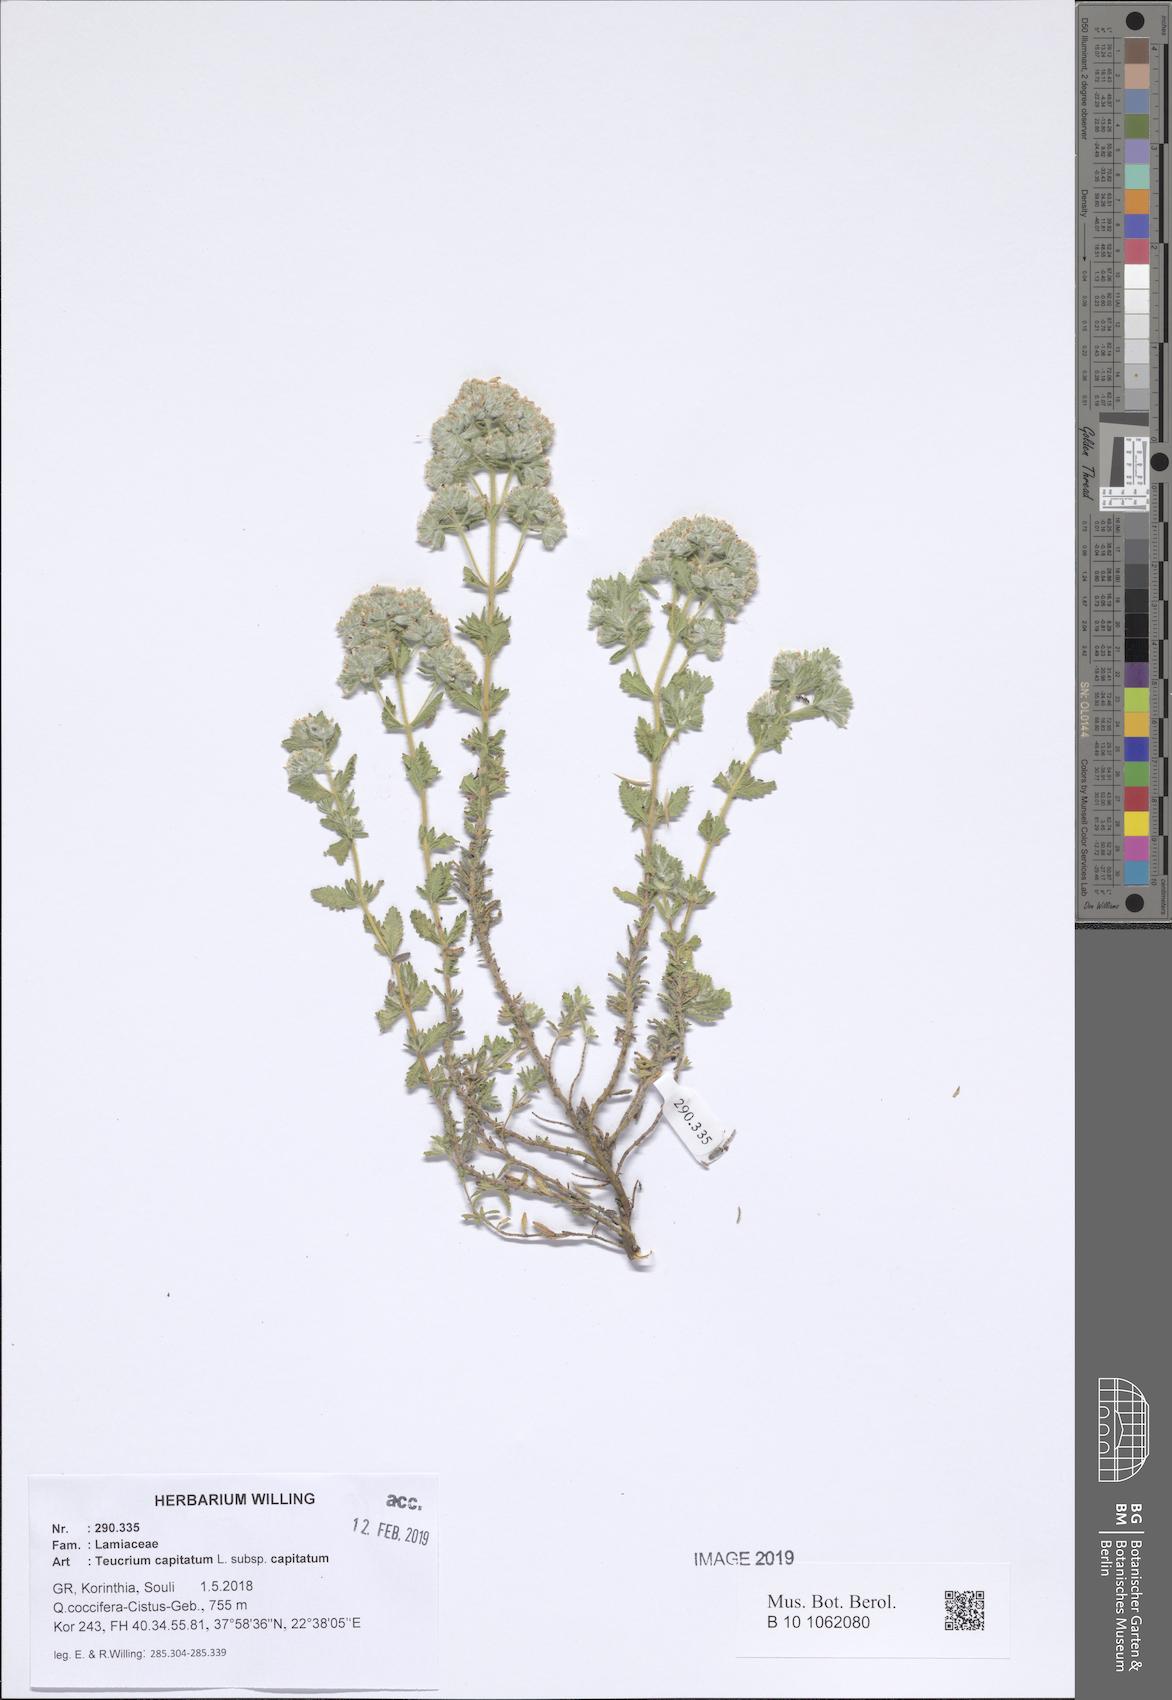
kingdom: Plantae
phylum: Tracheophyta
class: Magnoliopsida
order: Lamiales
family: Lamiaceae
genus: Teucrium
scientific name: Teucrium capitatum
